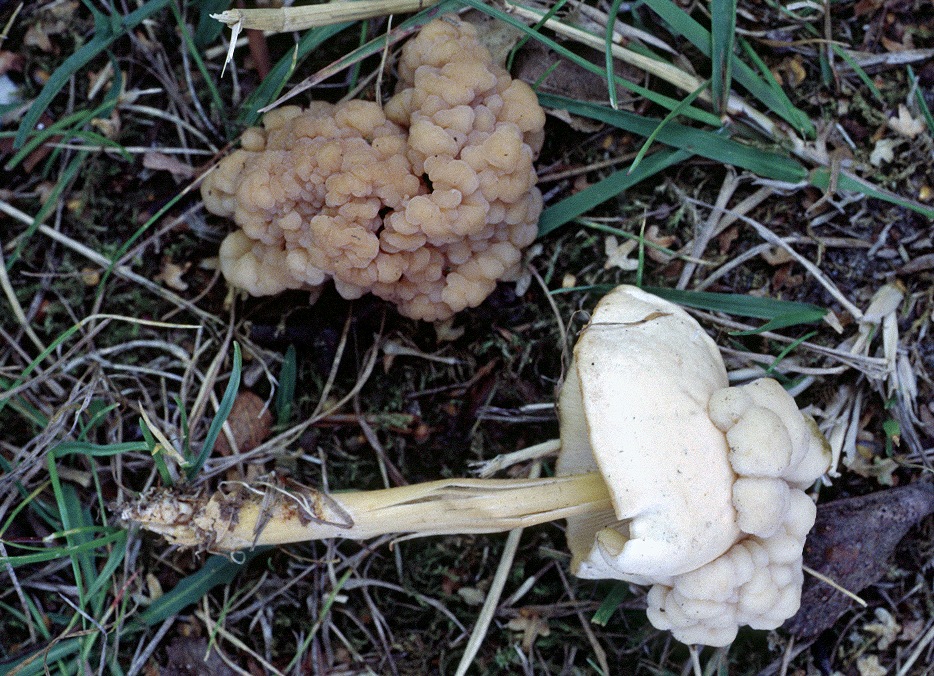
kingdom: Fungi
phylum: Basidiomycota
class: Tremellomycetes
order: Filobasidiales
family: Filobasidiaceae
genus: Syzygospora
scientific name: Syzygospora tumefaciens
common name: fladhatte-snyltehjerne
